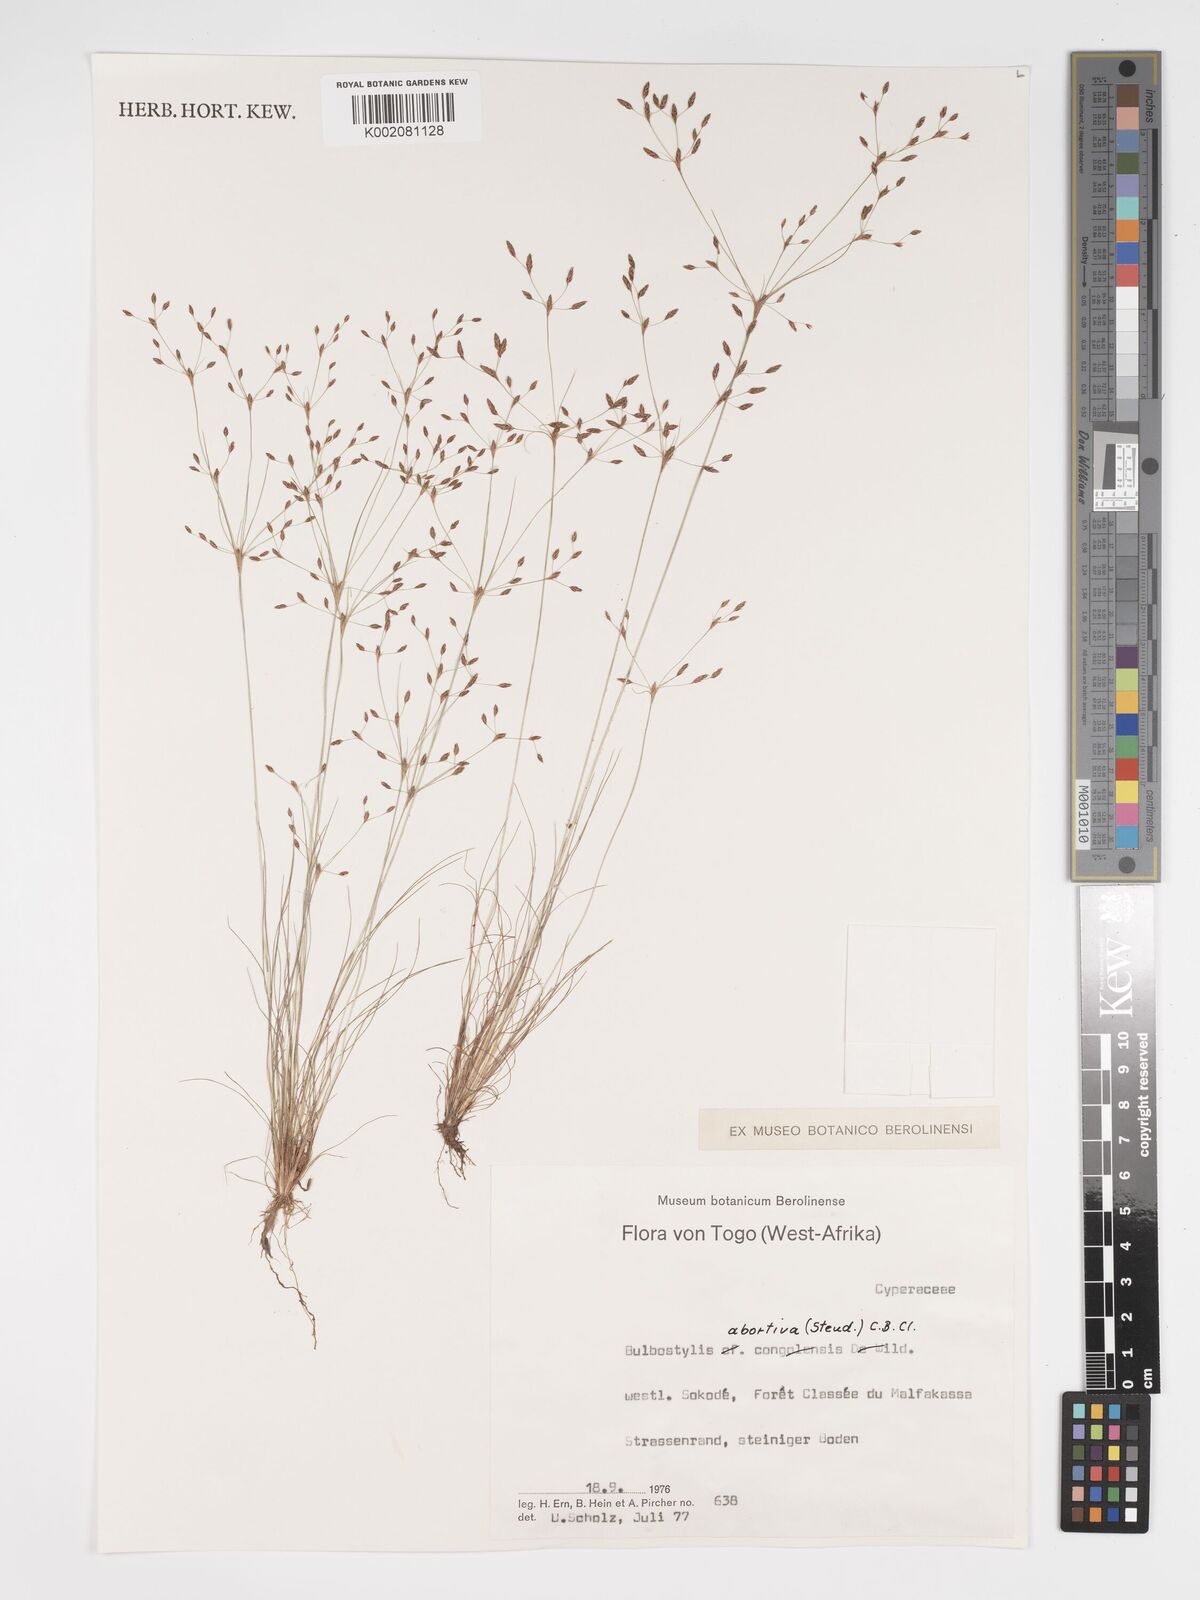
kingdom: Plantae
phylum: Tracheophyta
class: Liliopsida
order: Poales
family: Cyperaceae
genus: Bulbostylis
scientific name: Bulbostylis abortiva
